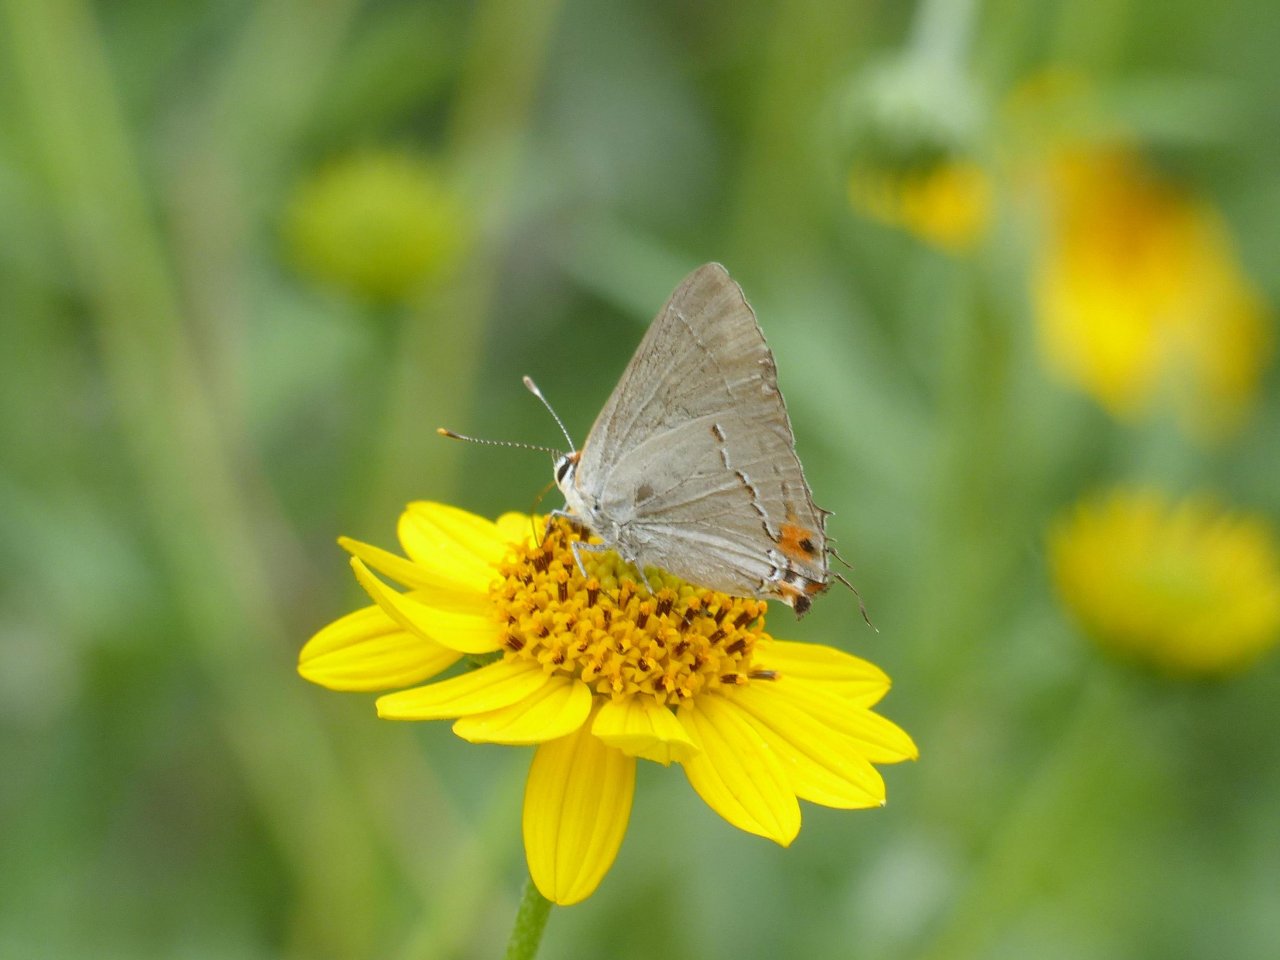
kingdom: Animalia
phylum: Arthropoda
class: Insecta
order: Lepidoptera
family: Lycaenidae
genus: Strymon
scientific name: Strymon melinus
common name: Gray Hairstreak
